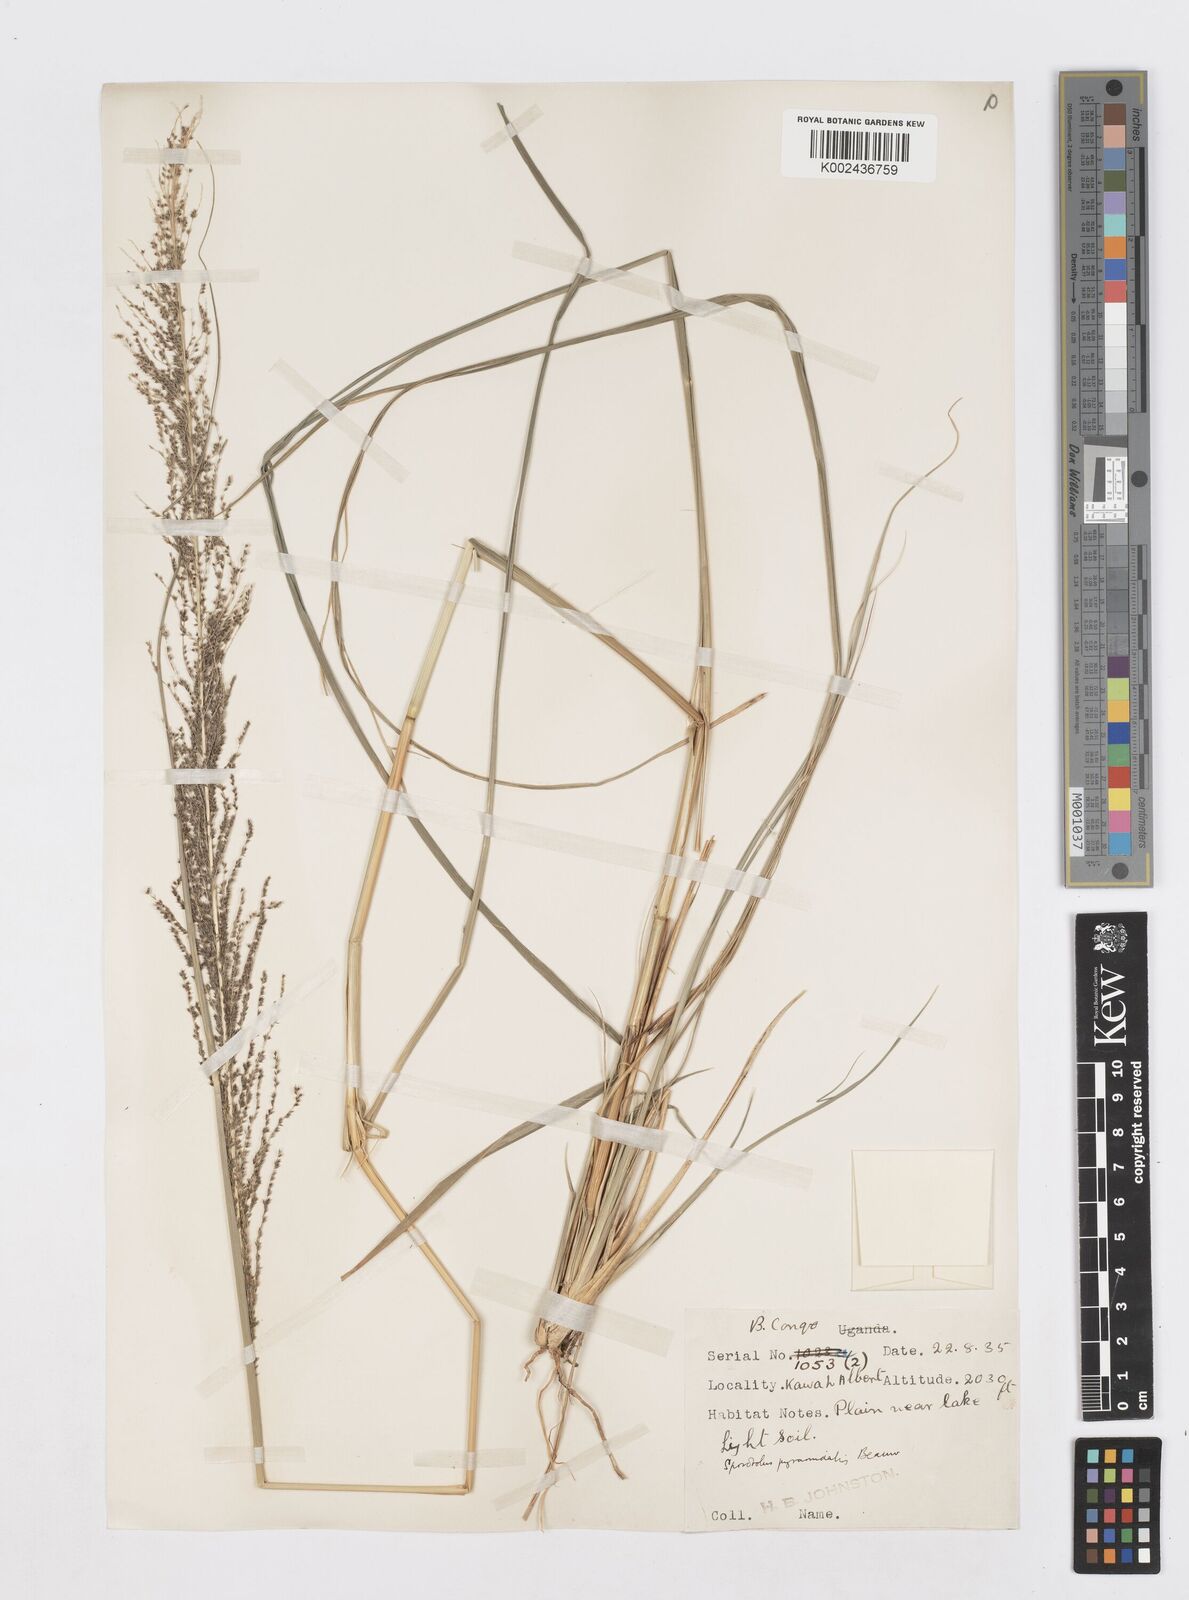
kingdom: Plantae
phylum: Tracheophyta
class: Liliopsida
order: Poales
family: Poaceae
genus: Sporobolus
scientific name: Sporobolus pyramidalis
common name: West indian dropseed
